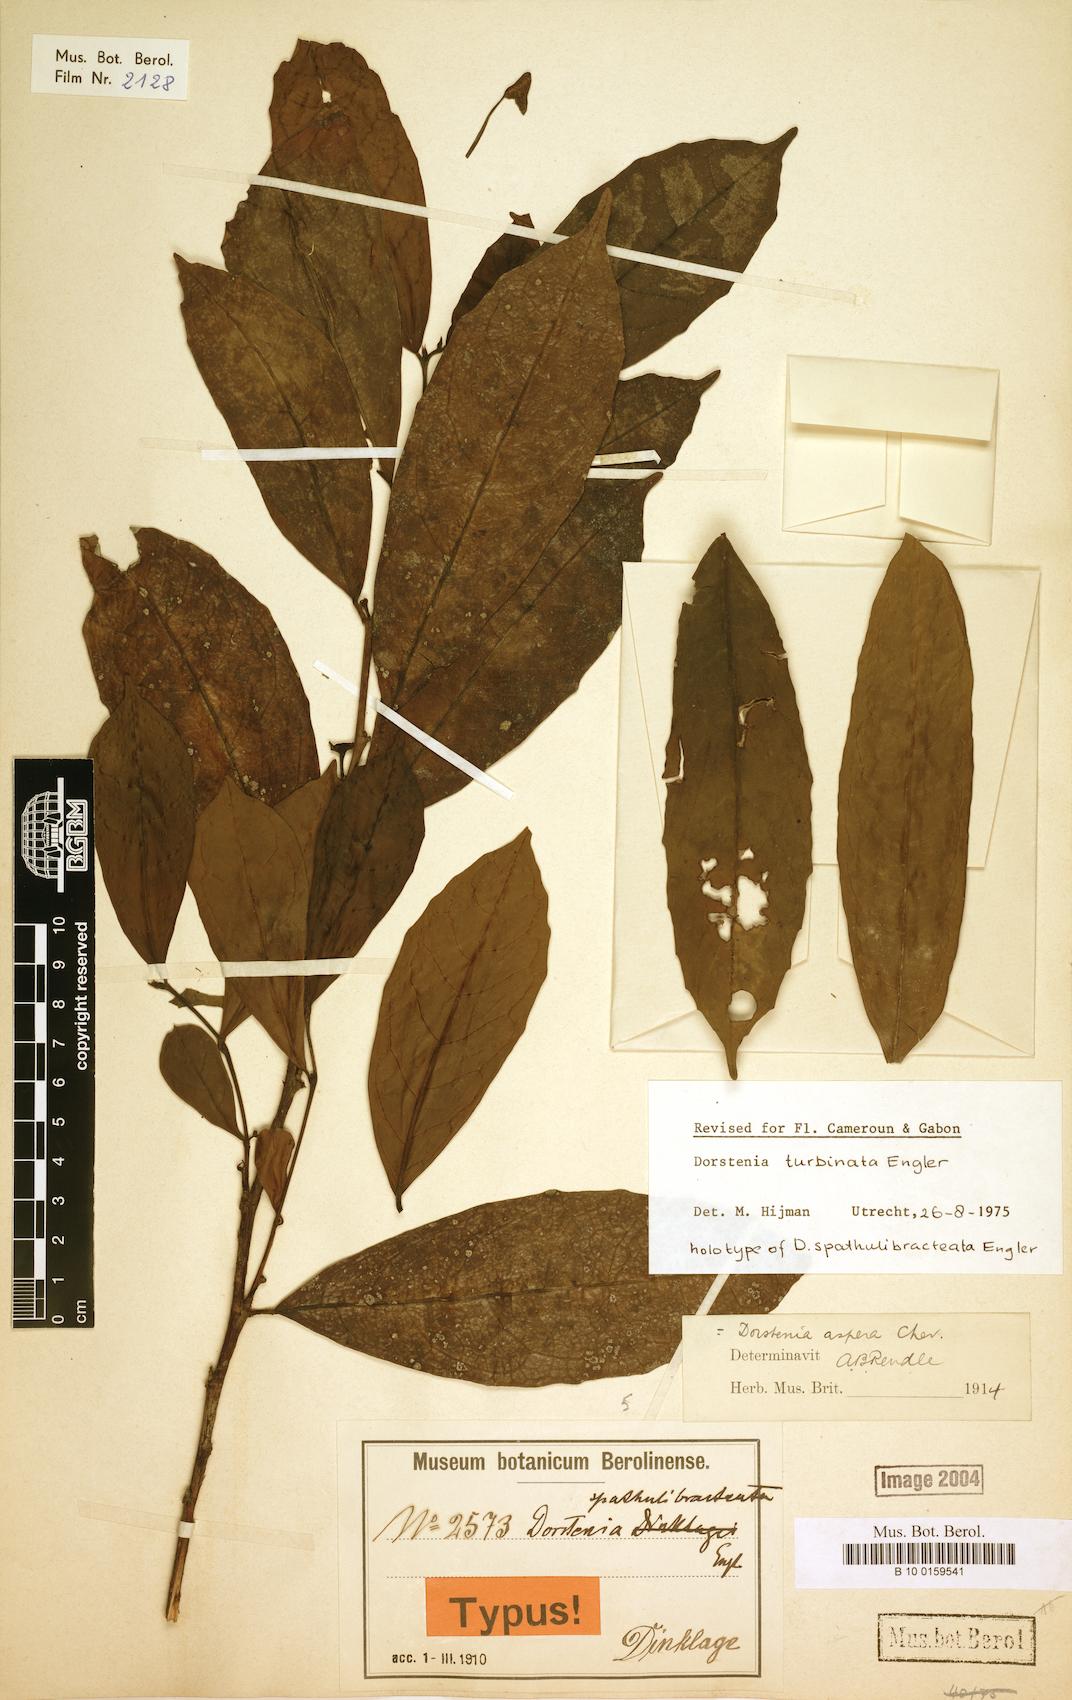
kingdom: Plantae
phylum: Tracheophyta
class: Magnoliopsida
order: Rosales
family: Moraceae
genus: Hijmania
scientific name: Hijmania turbinata
